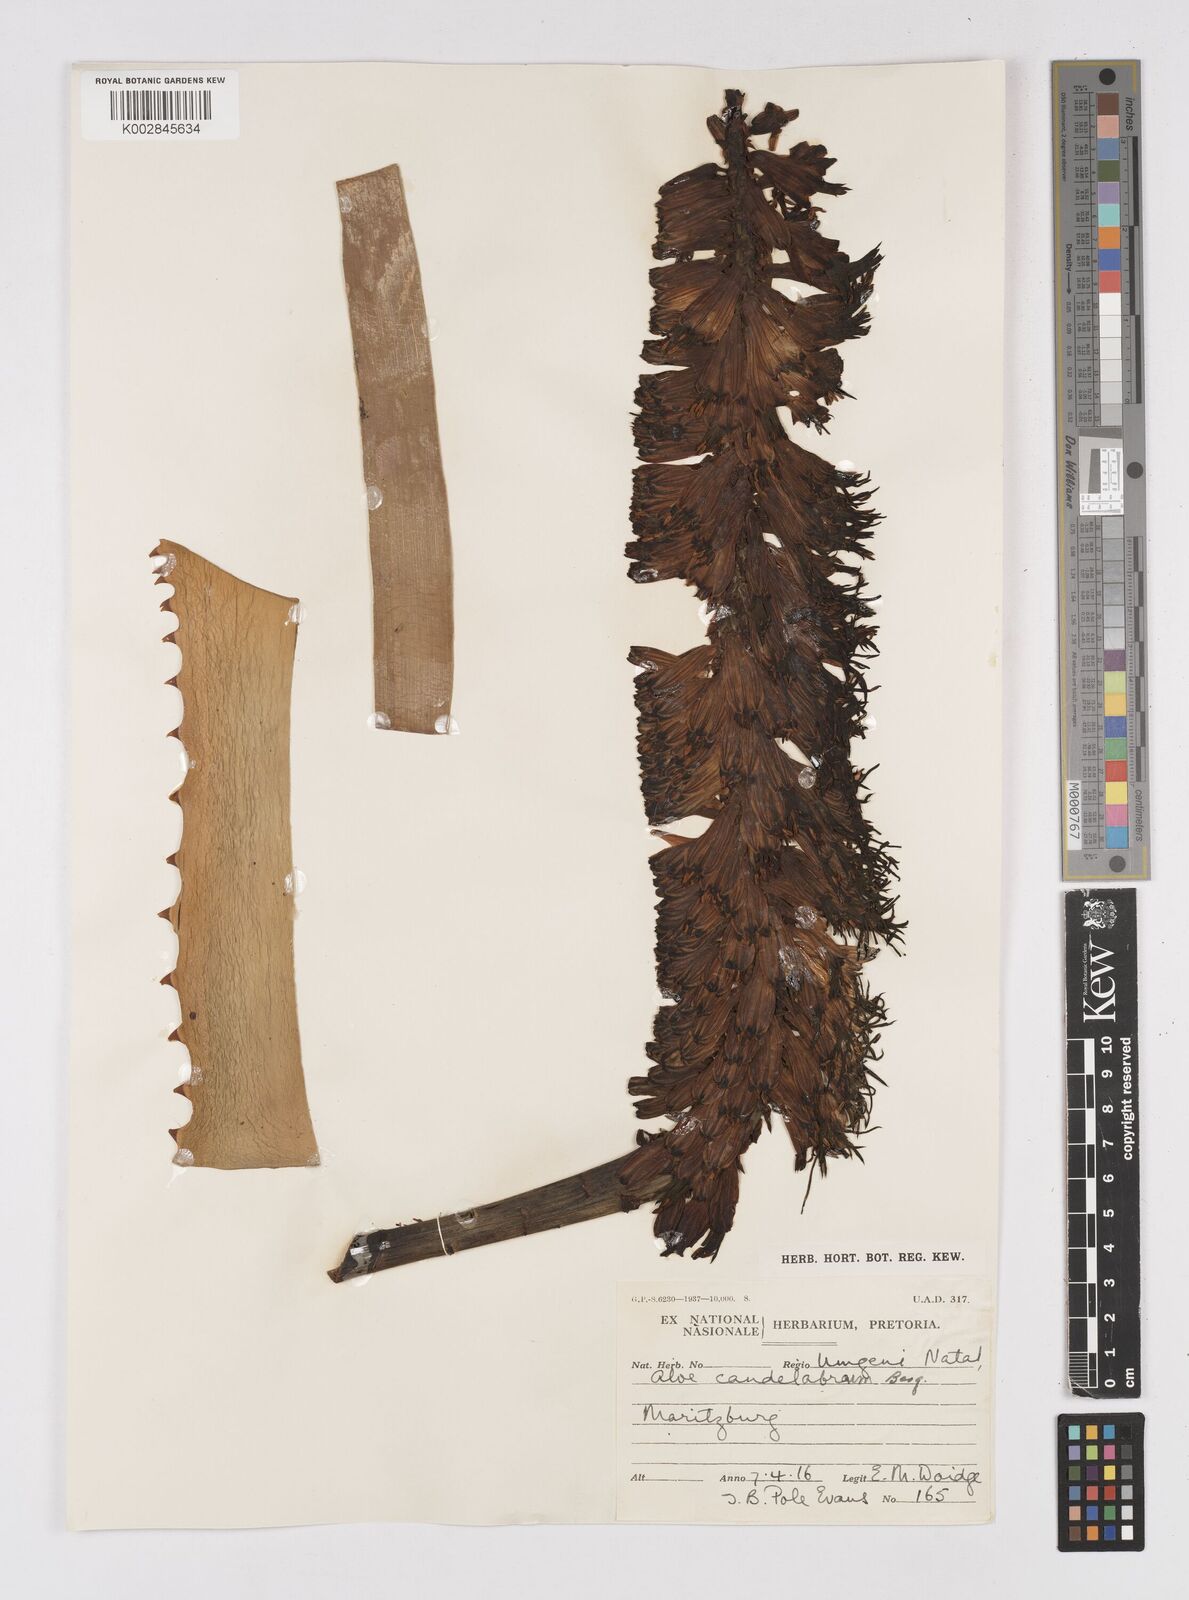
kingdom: Plantae
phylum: Tracheophyta
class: Liliopsida
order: Asparagales
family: Asphodelaceae
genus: Aloe
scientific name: Aloe candelabrum
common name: Candelabra aloe
